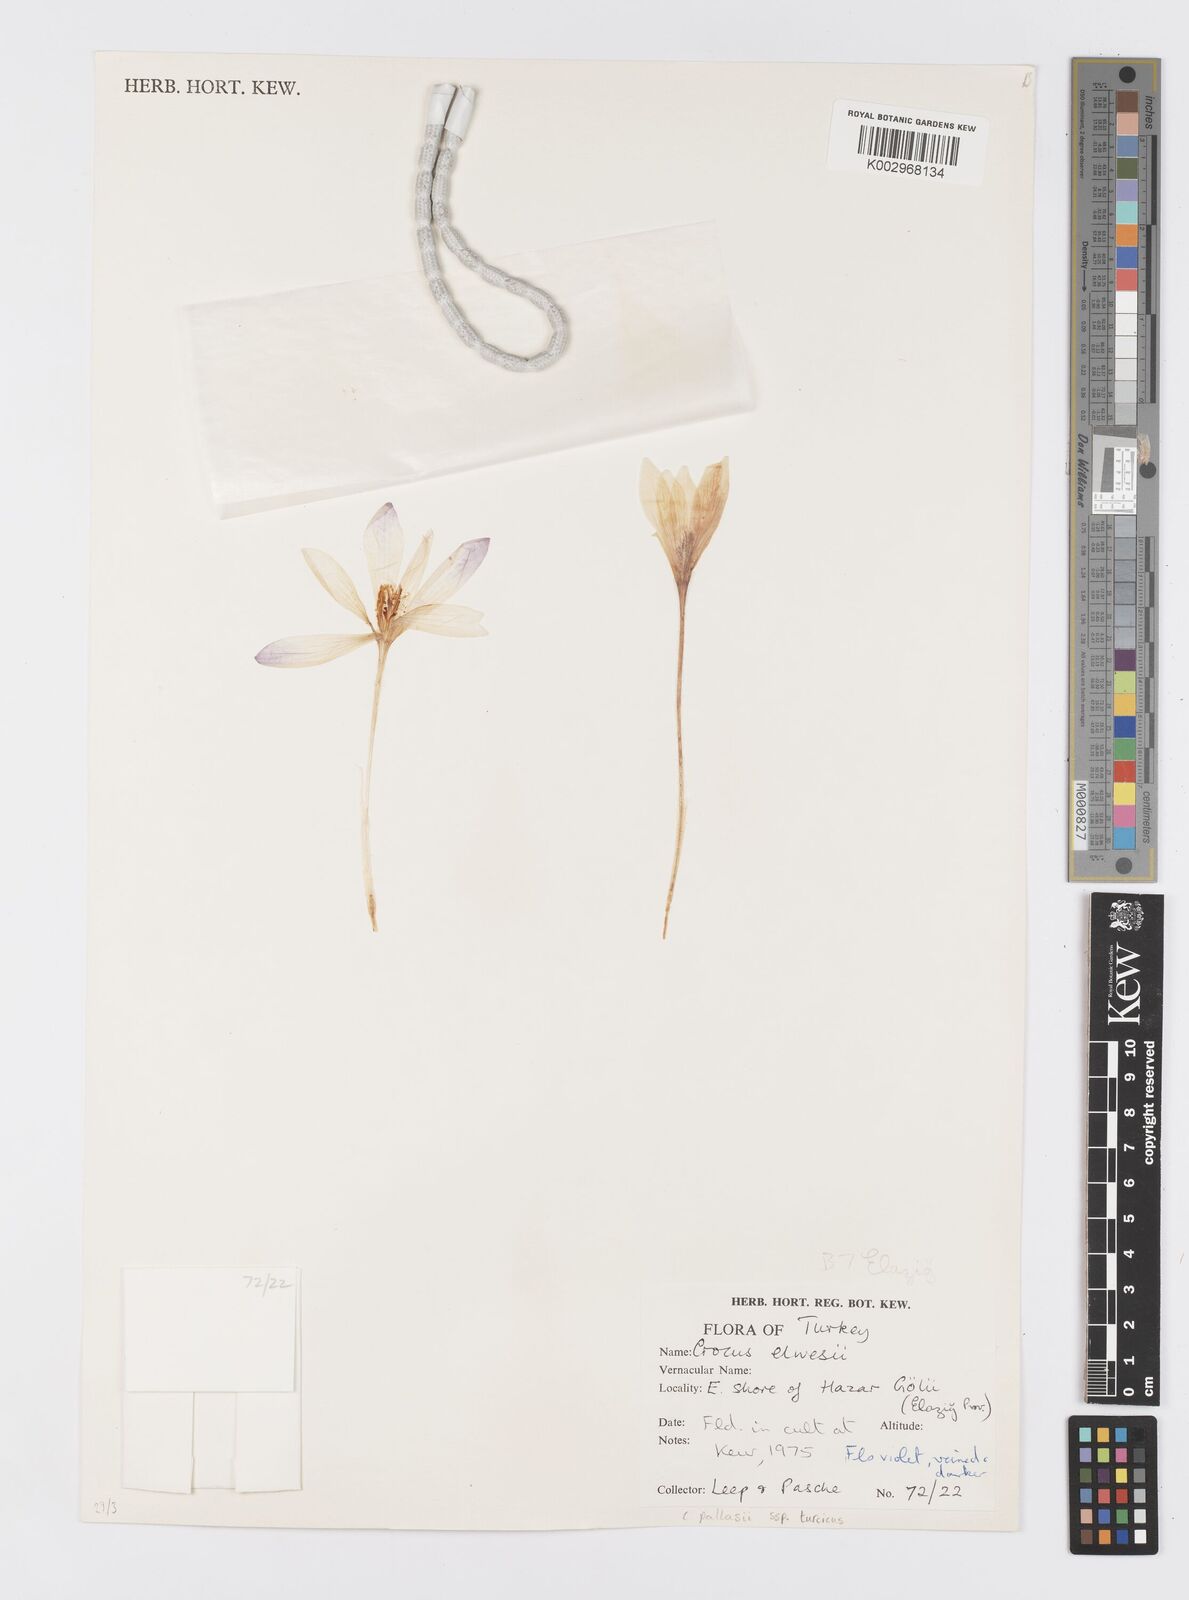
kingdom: Plantae
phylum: Tracheophyta
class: Liliopsida
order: Asparagales
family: Iridaceae
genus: Crocus
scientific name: Crocus turcicus
